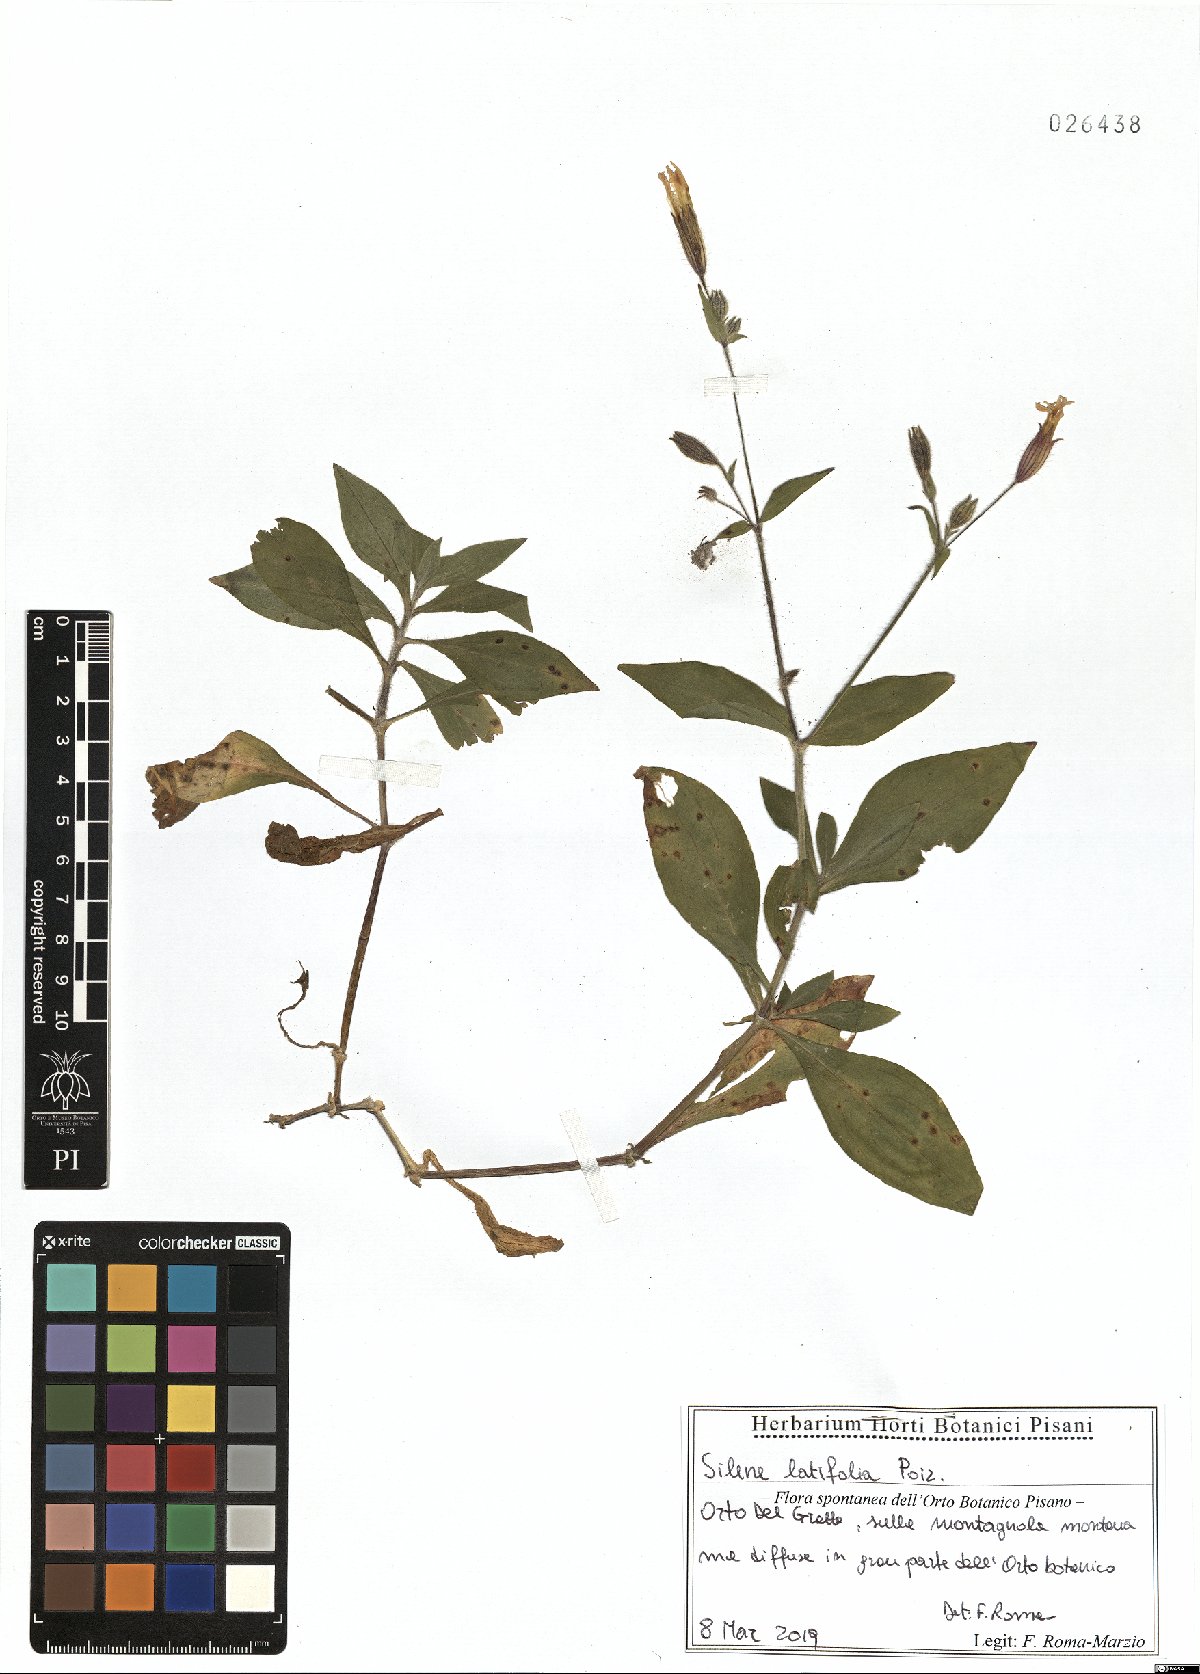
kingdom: Plantae
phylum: Tracheophyta
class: Magnoliopsida
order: Caryophyllales
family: Caryophyllaceae
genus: Silene
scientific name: Silene latifolia
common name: White campion
